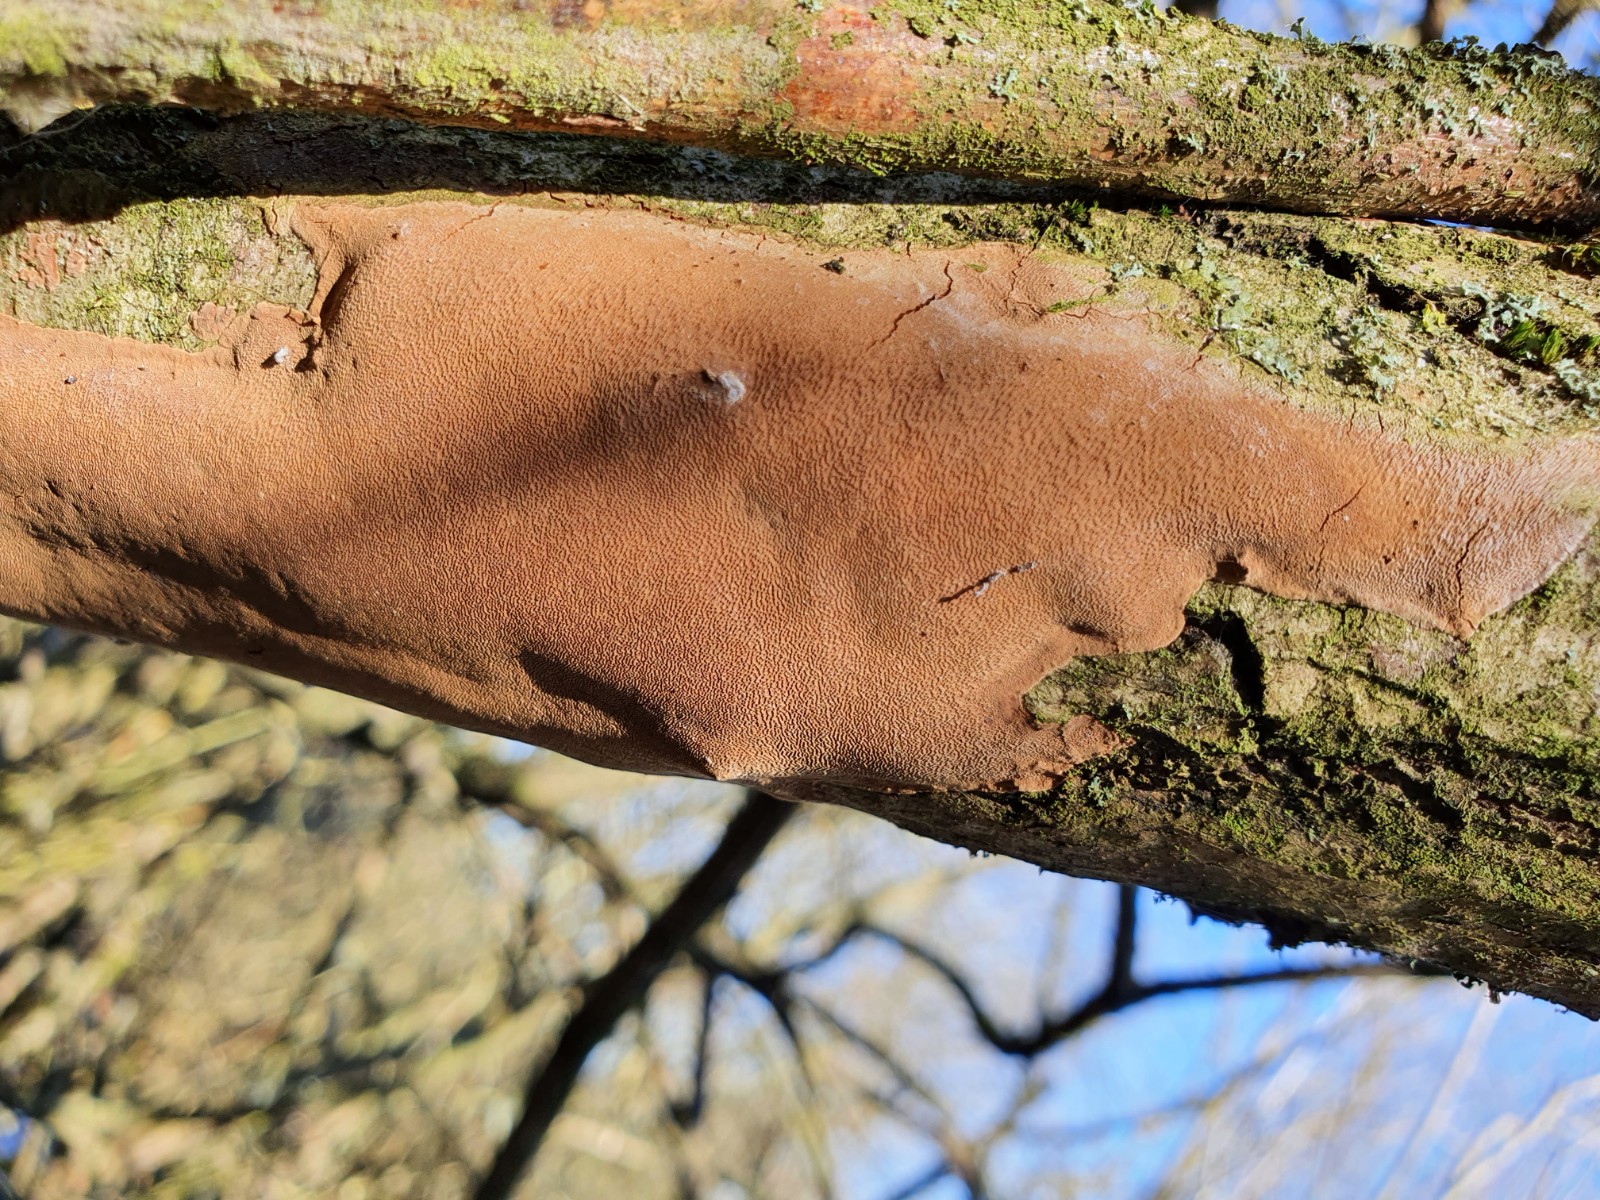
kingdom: Fungi
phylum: Basidiomycota
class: Agaricomycetes
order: Hymenochaetales
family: Hymenochaetaceae
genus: Fomitiporia
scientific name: Fomitiporia punctata
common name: pude-ildporesvamp
